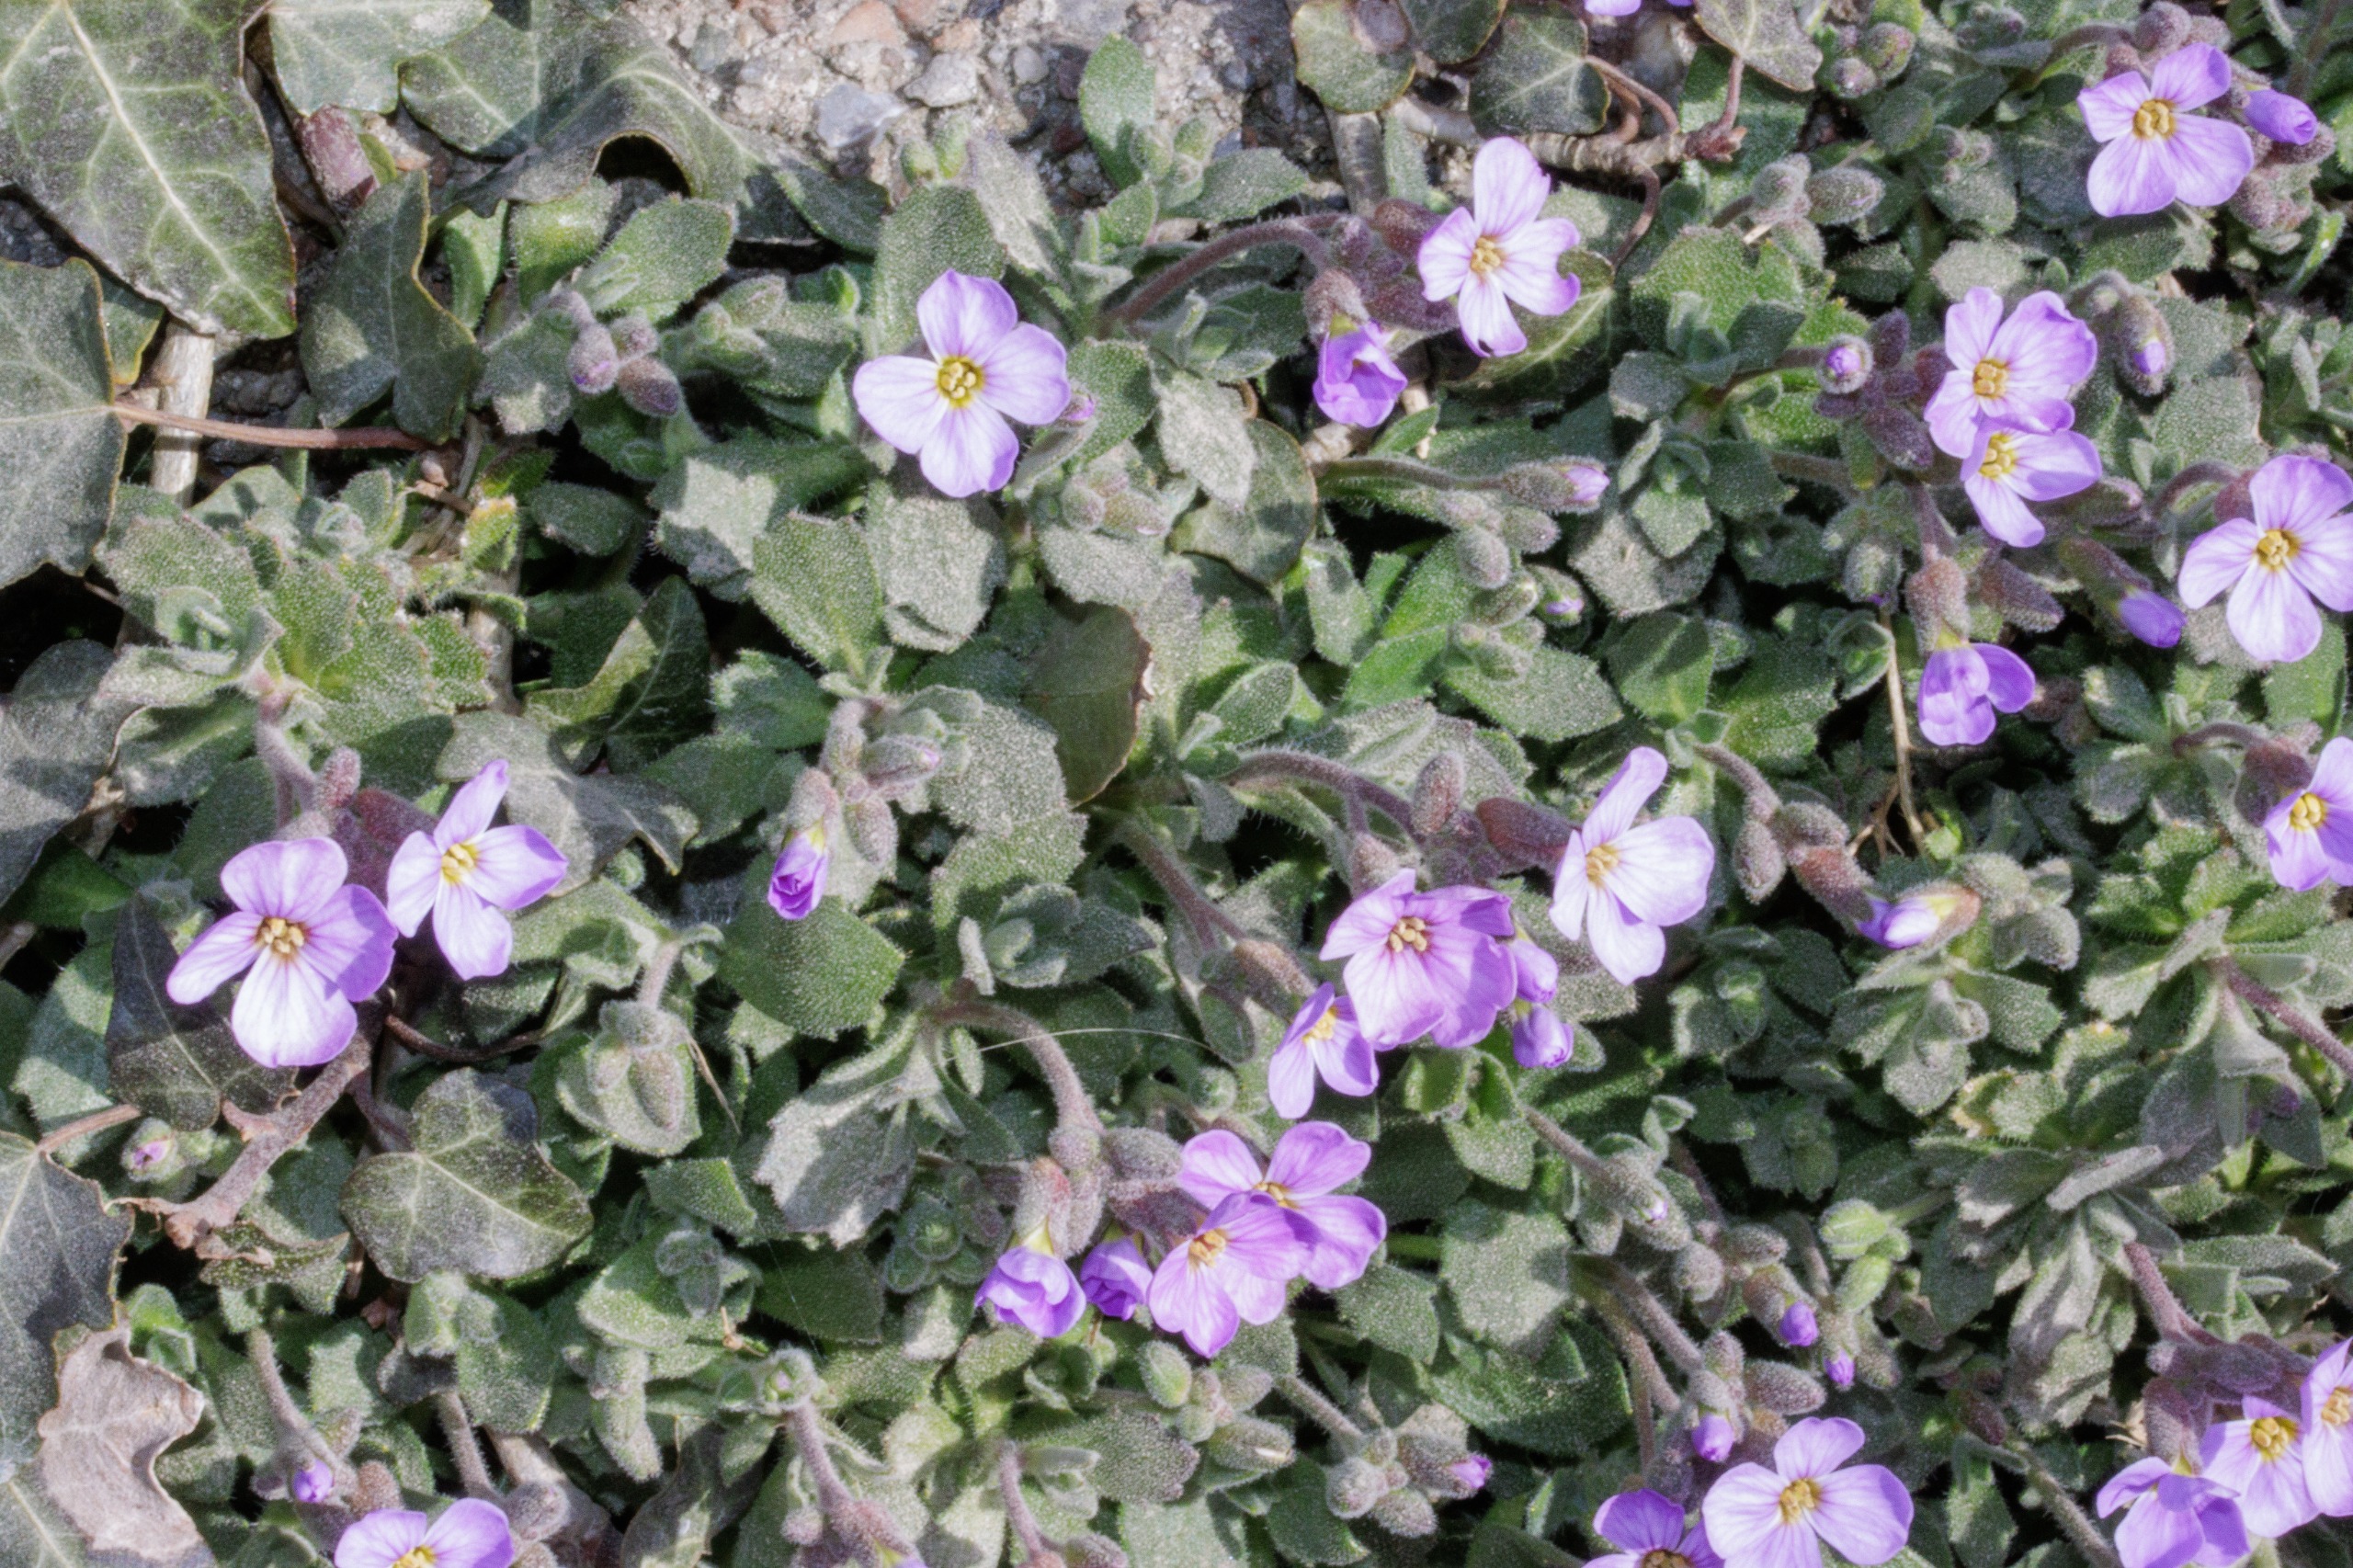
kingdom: Plantae
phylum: Tracheophyta
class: Magnoliopsida
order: Brassicales
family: Brassicaceae
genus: Aubrieta
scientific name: Aubrieta cultorum
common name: Blåpude
